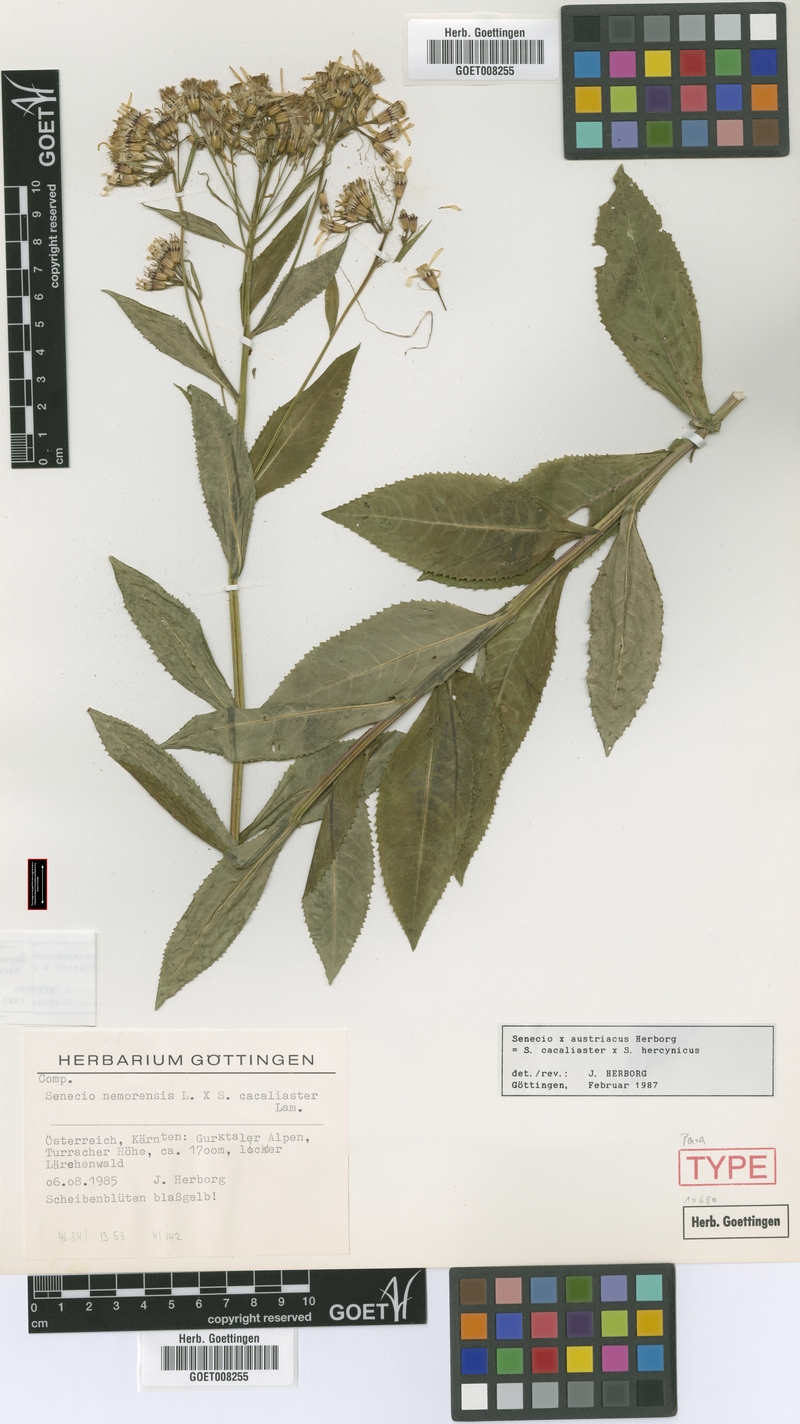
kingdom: Plantae
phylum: Tracheophyta
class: Magnoliopsida
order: Asterales
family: Asteraceae
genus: Senecio
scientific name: Senecio austriacus
